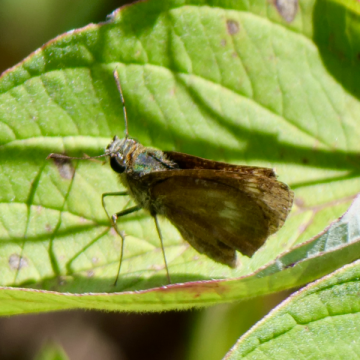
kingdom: Animalia
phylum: Arthropoda
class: Insecta
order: Lepidoptera
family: Hesperiidae
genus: Polites
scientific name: Polites egeremet
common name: Northern Broken-Dash
